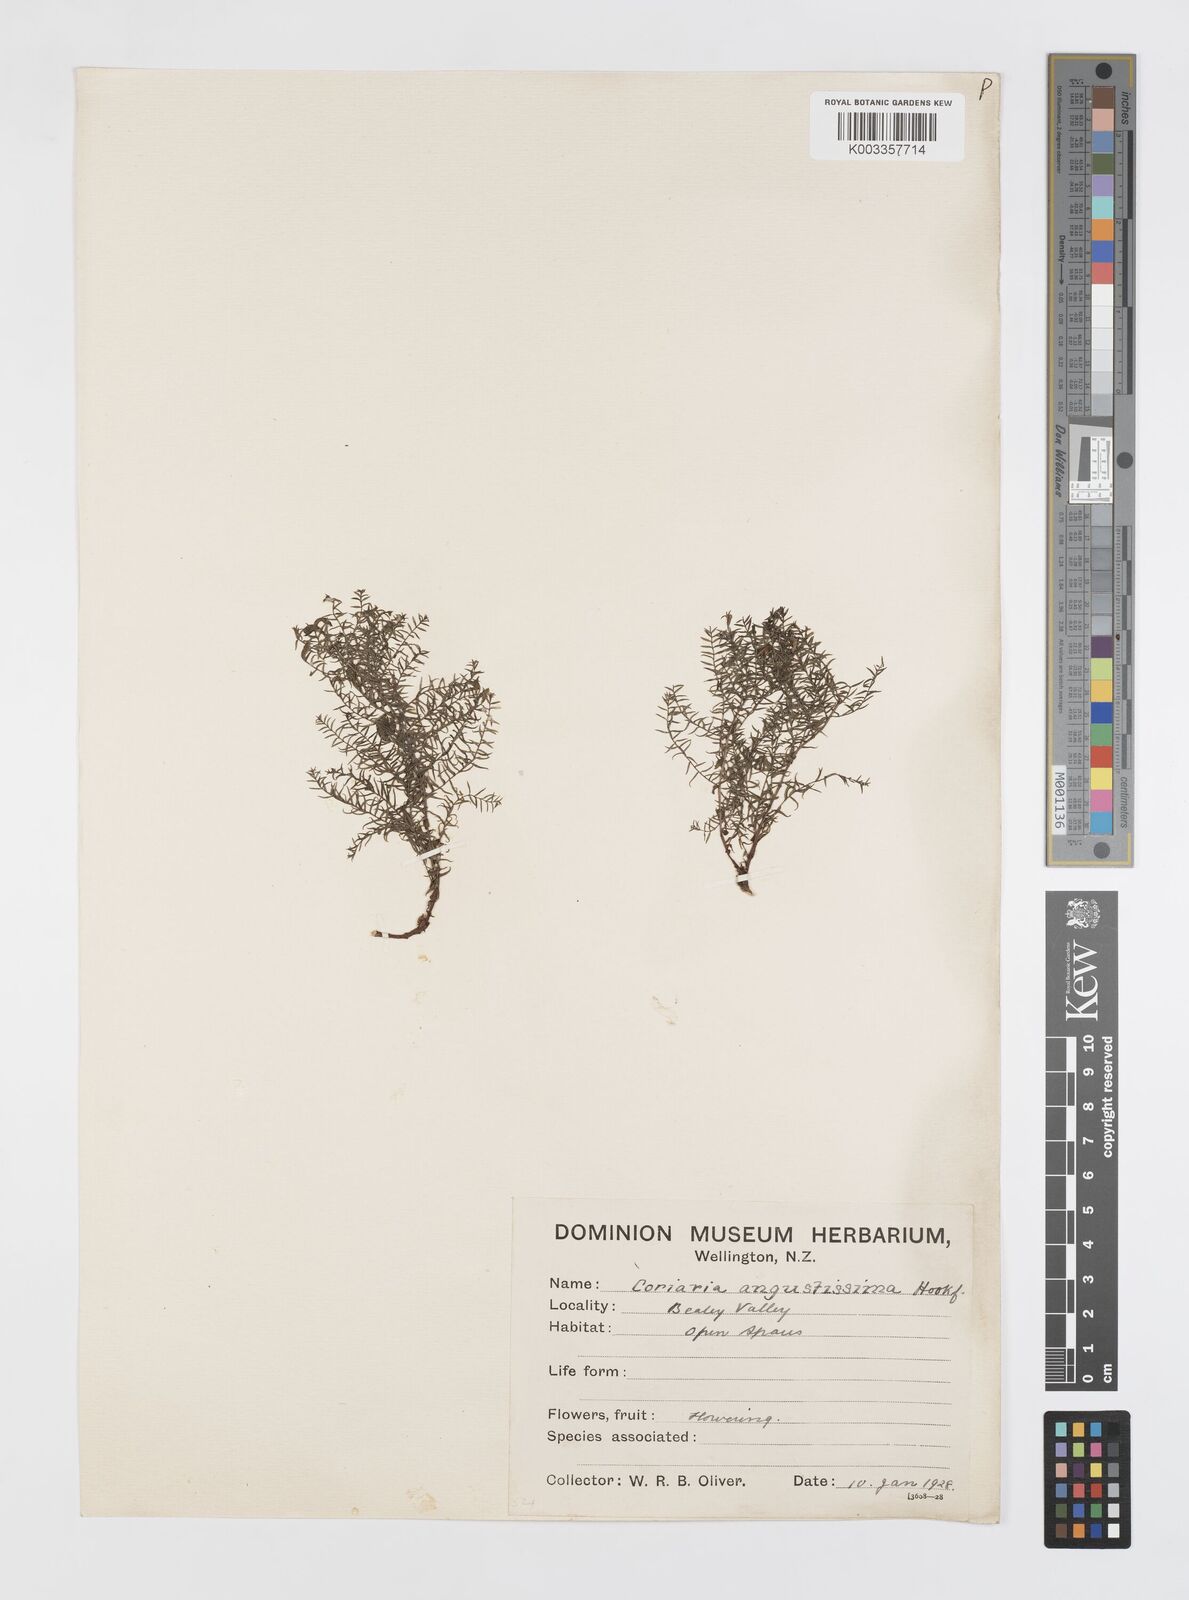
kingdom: Plantae
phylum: Tracheophyta
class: Magnoliopsida
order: Cucurbitales
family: Coriariaceae
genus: Coriaria
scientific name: Coriaria angustissima
